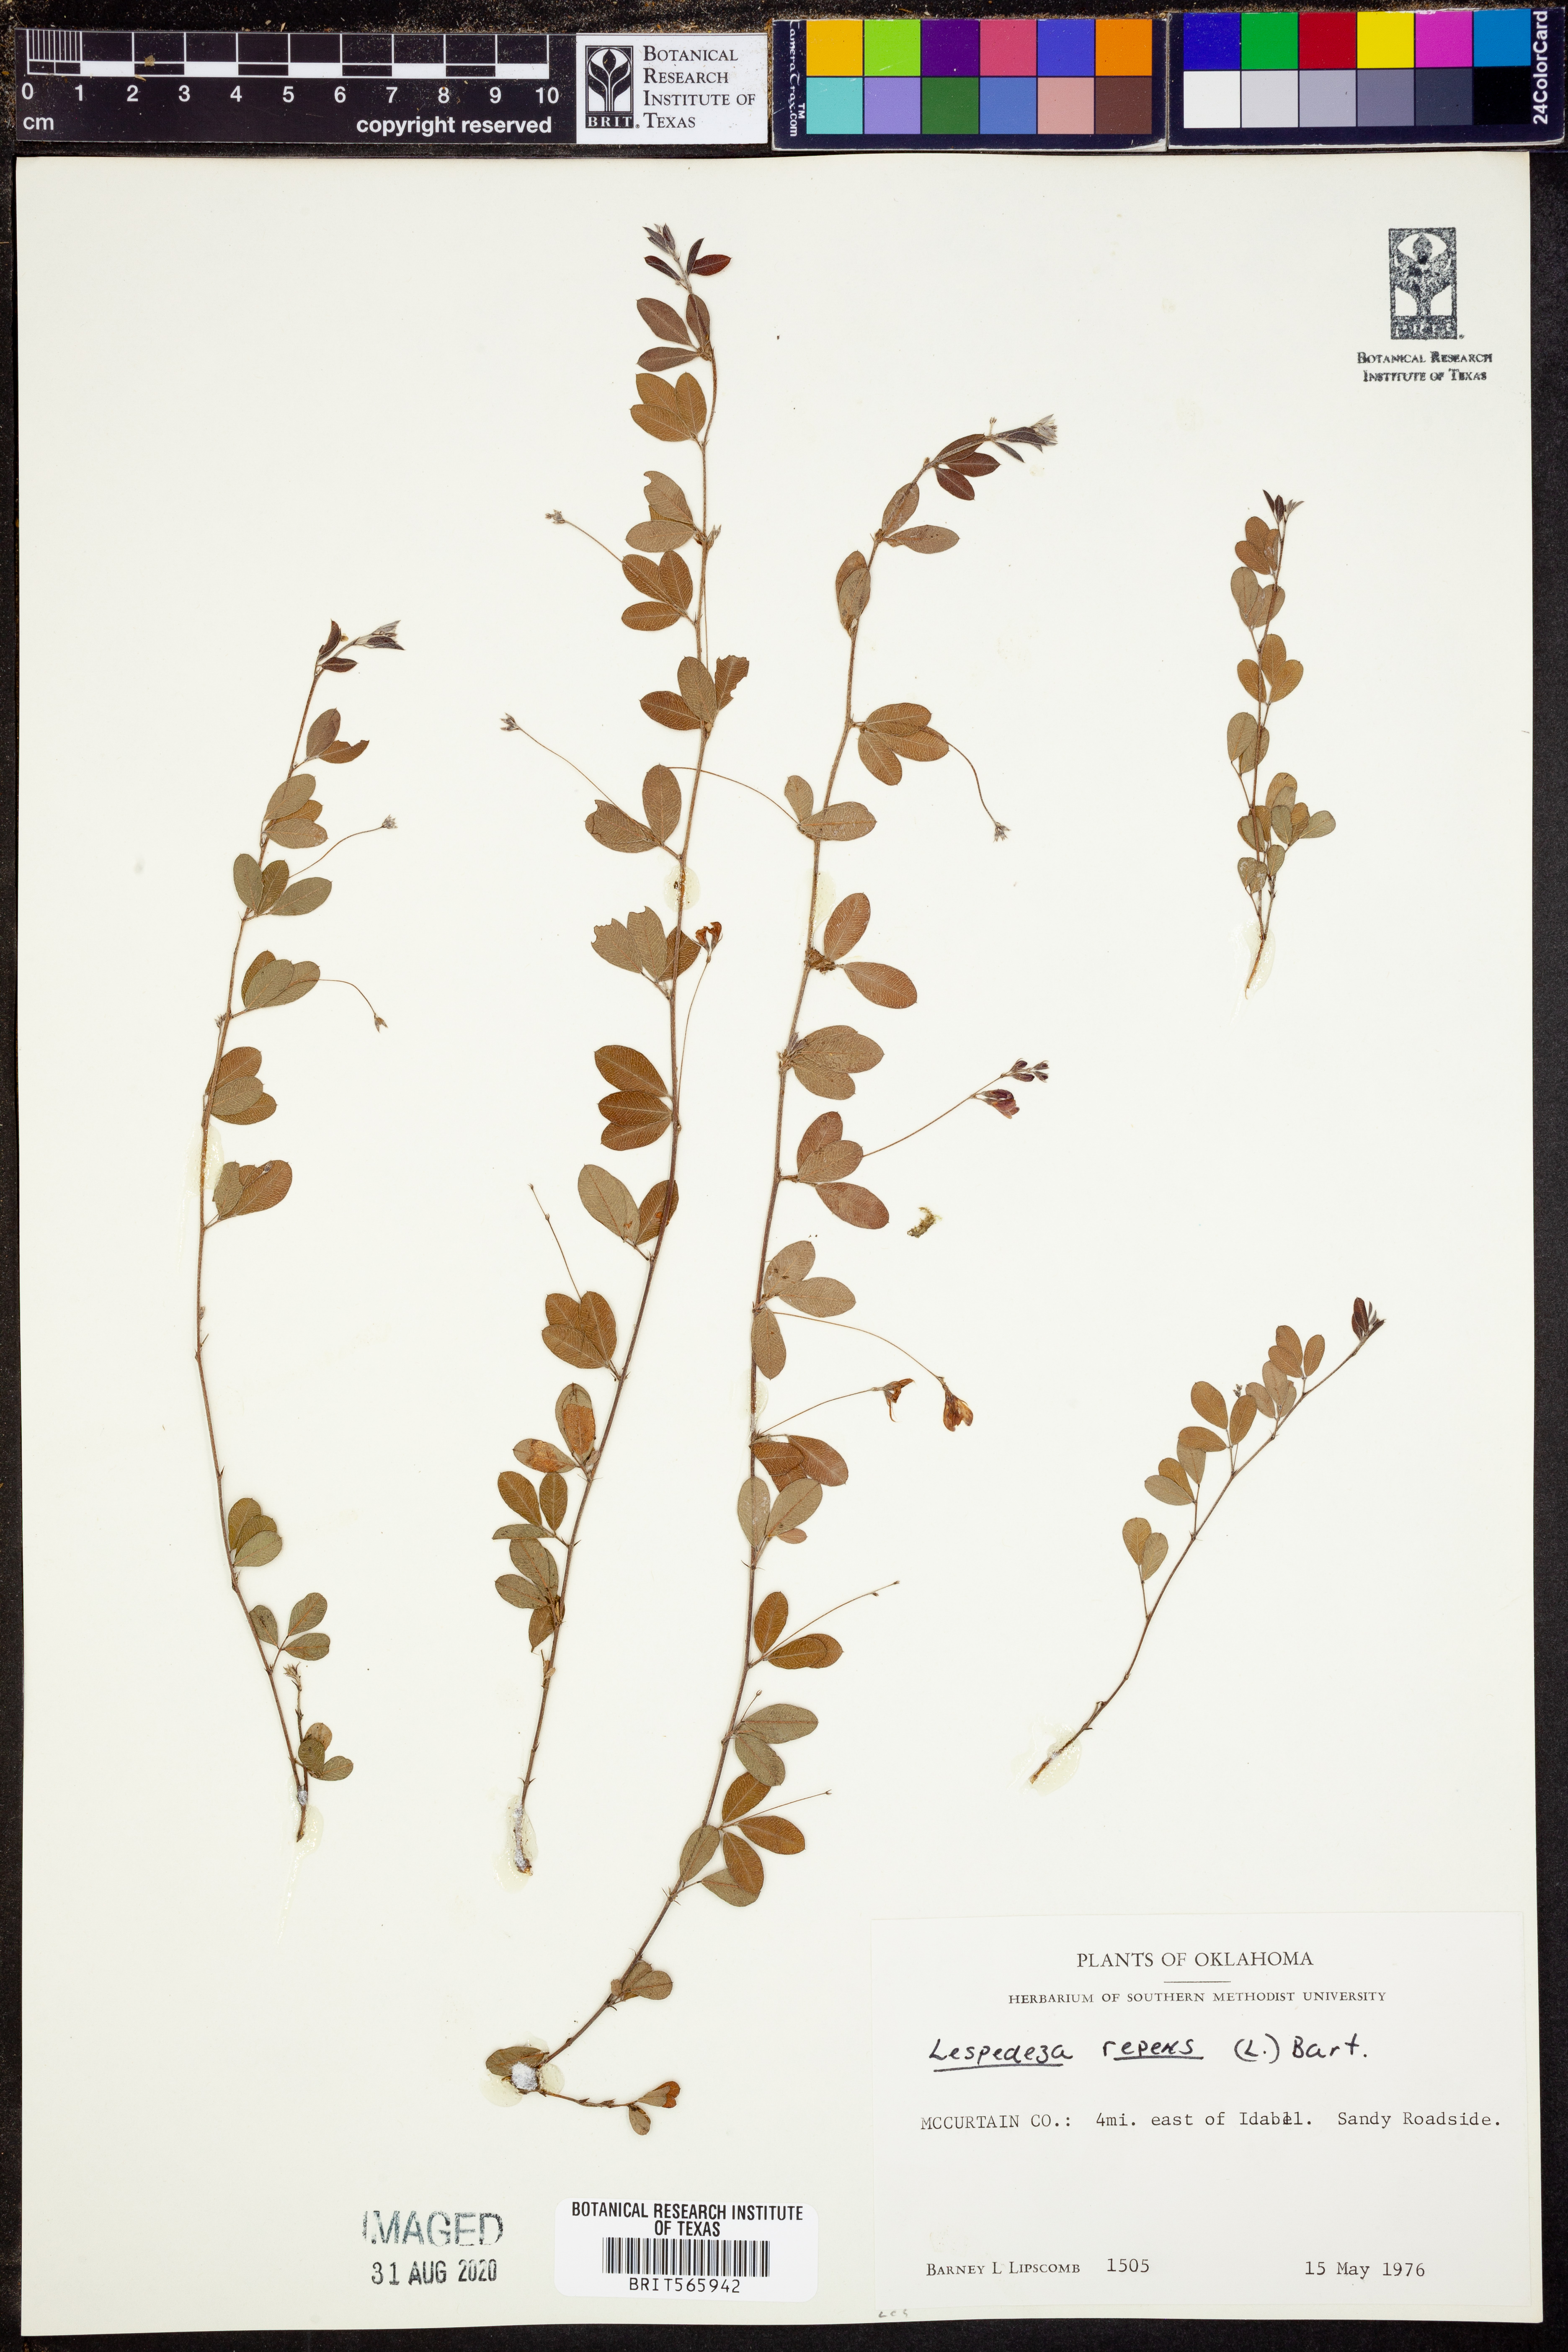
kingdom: Plantae
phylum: Tracheophyta
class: Magnoliopsida
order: Fabales
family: Fabaceae
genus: Lespedeza
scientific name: Lespedeza repens
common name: Creeping bush-clover
